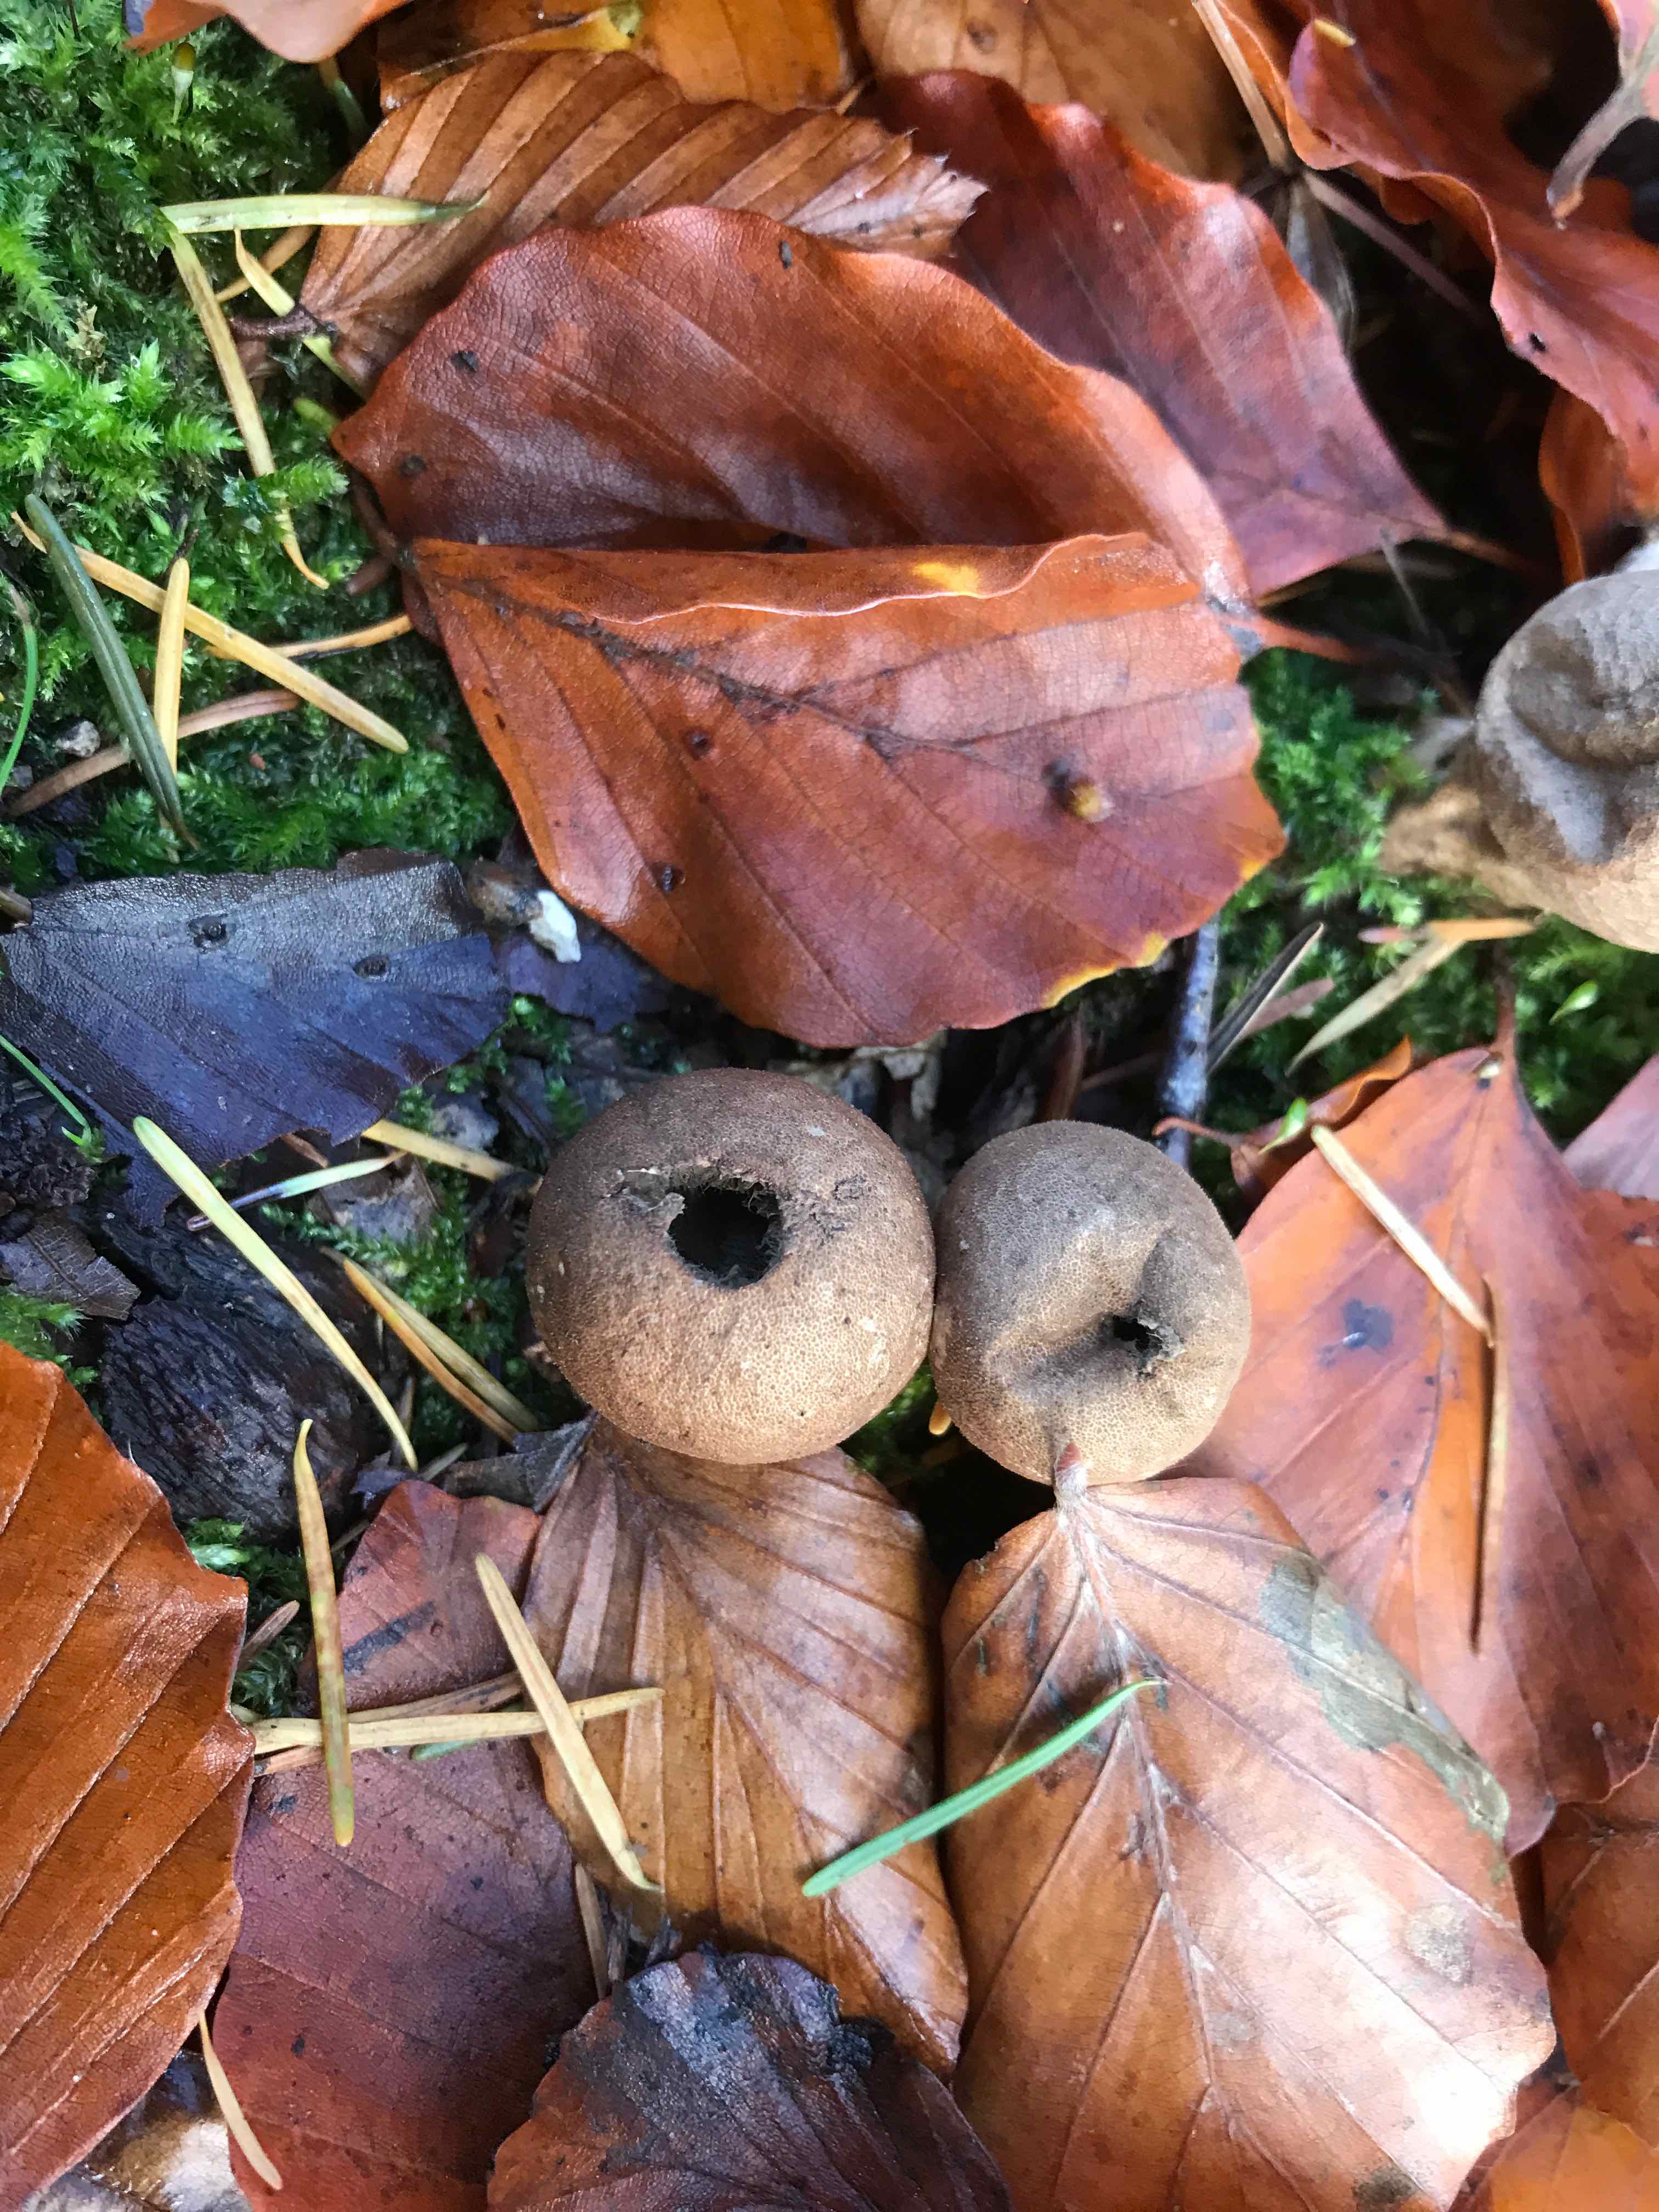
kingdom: Fungi
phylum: Basidiomycota
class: Agaricomycetes
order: Agaricales
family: Agaricaceae
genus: Lycoperdon
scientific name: Lycoperdon
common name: støvbold
